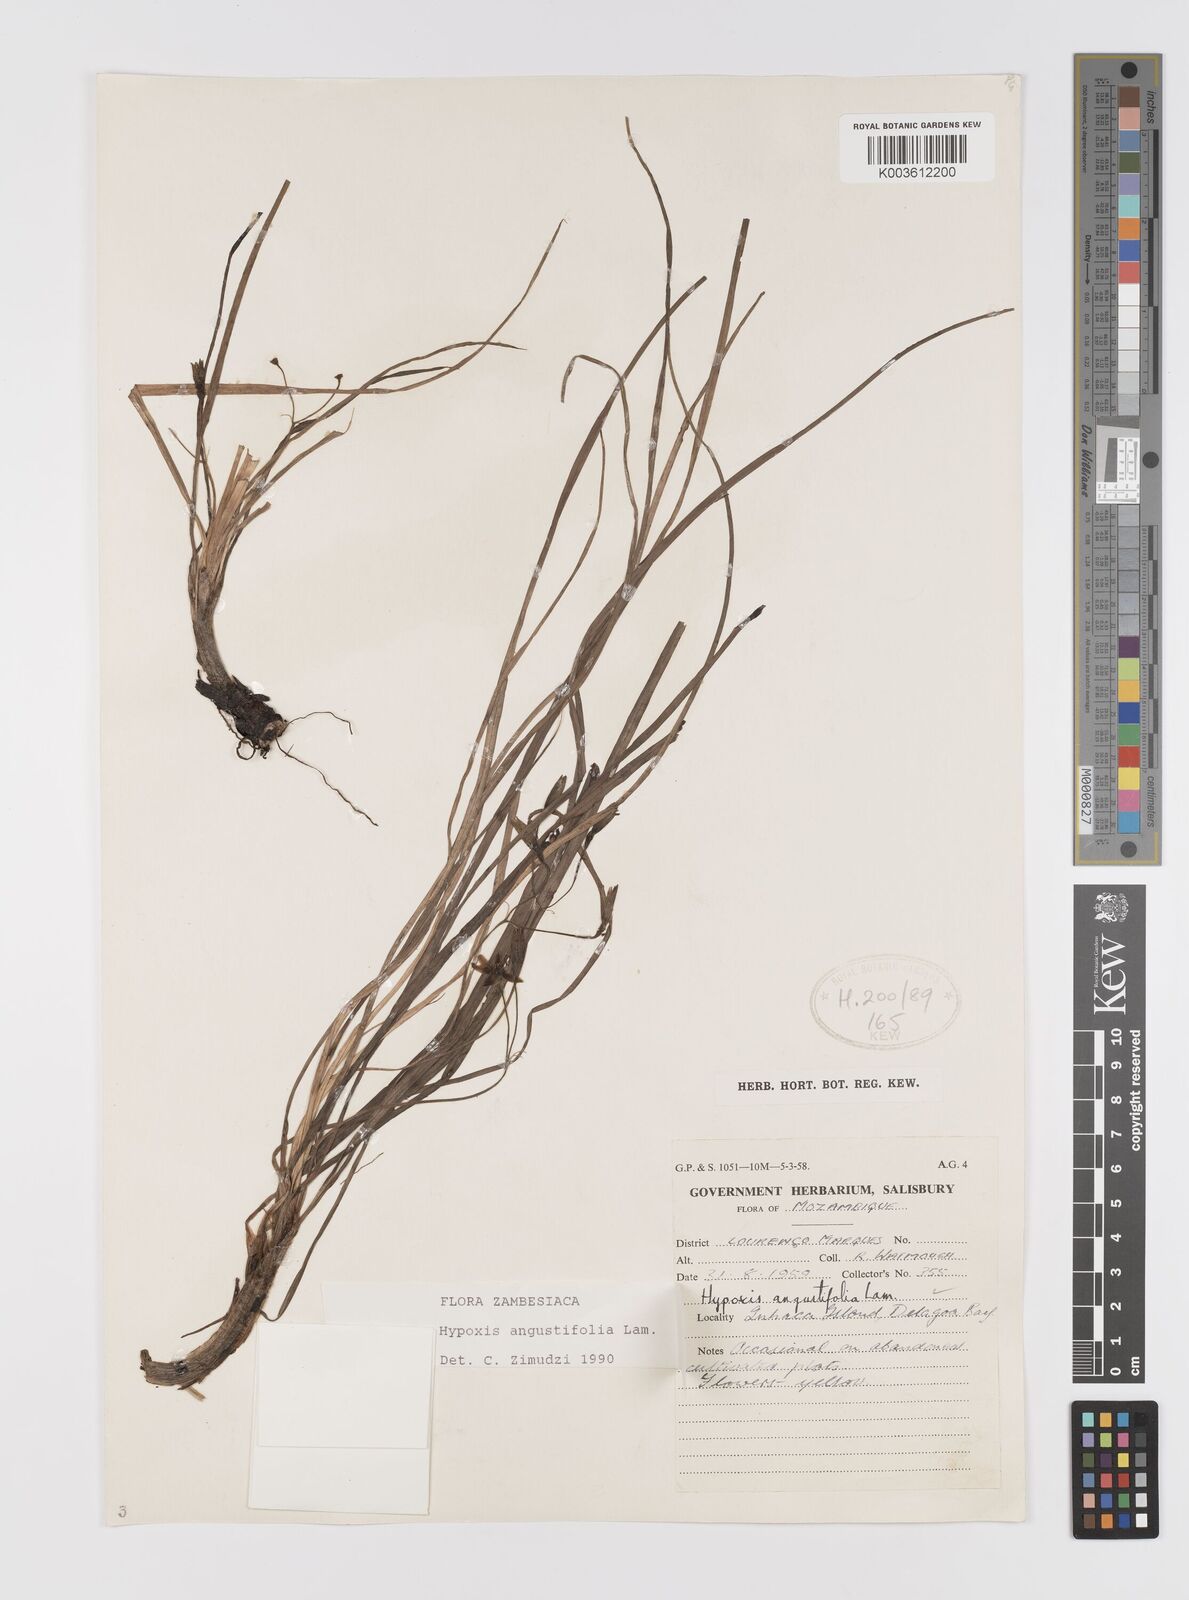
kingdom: Plantae
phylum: Tracheophyta
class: Liliopsida
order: Asparagales
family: Hypoxidaceae
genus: Hypoxis
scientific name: Hypoxis angustifolia
